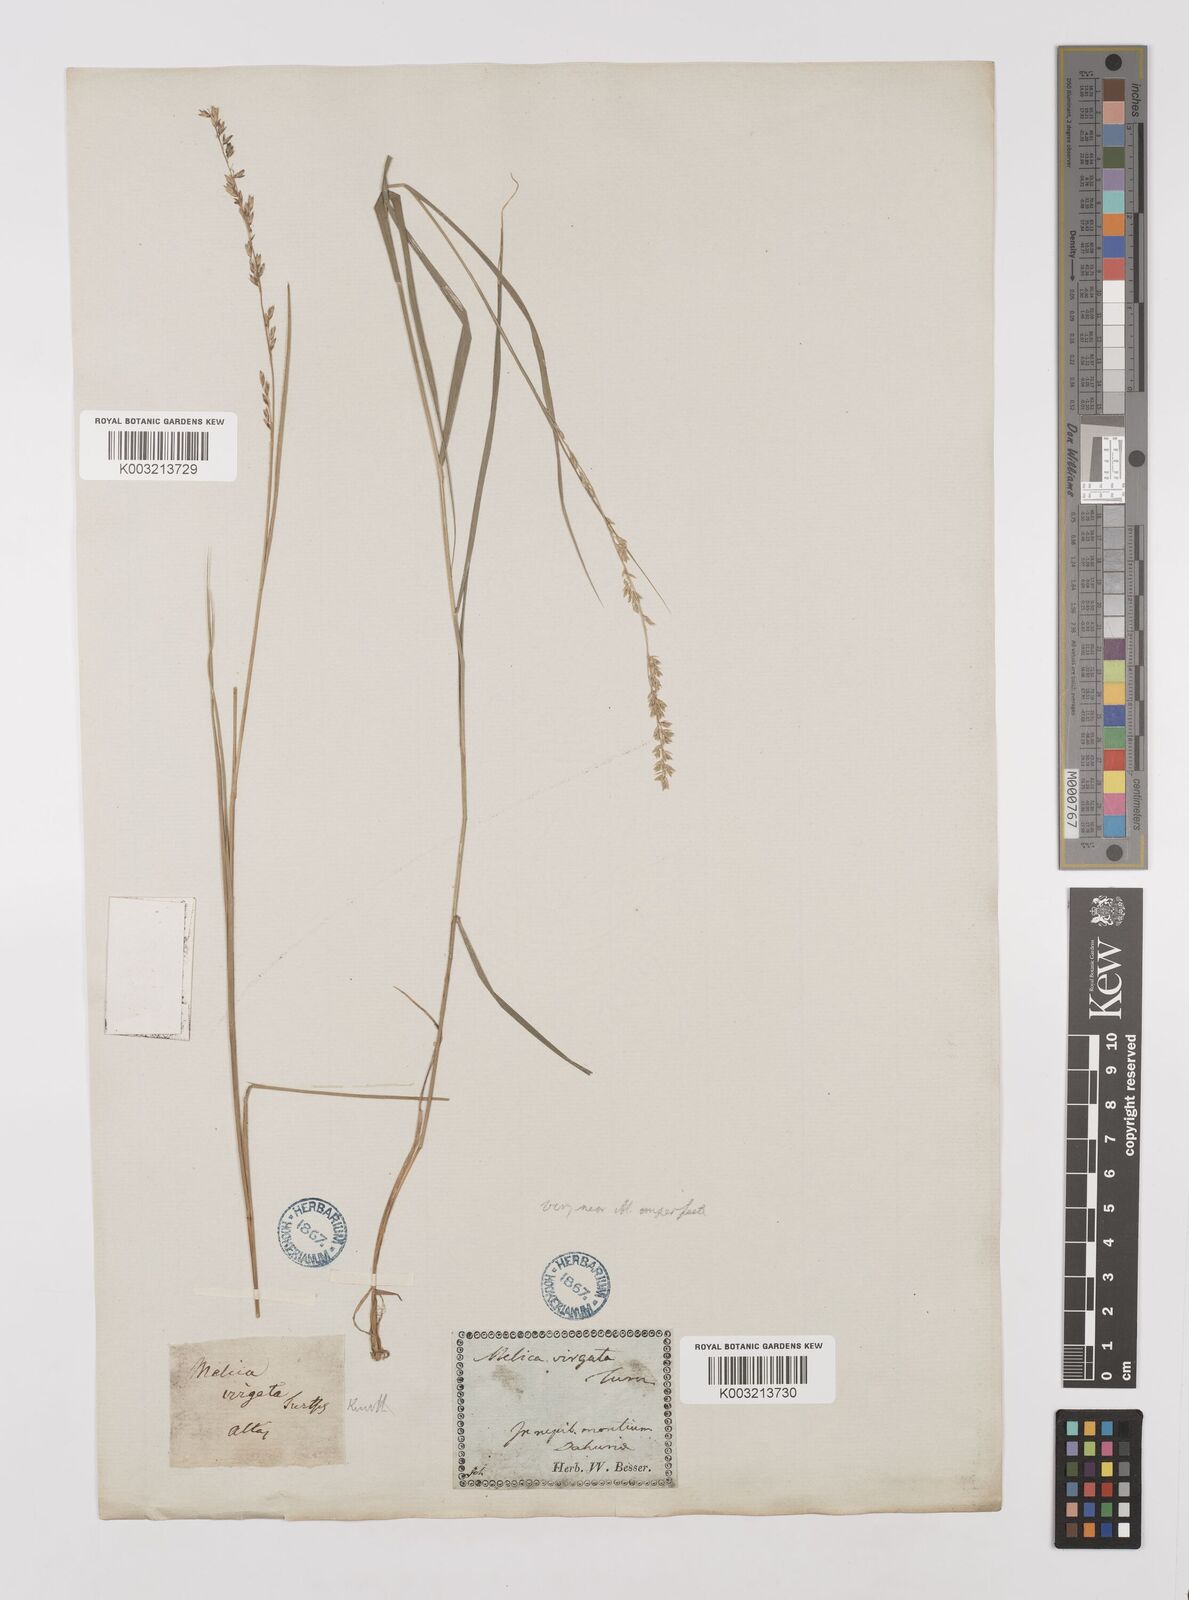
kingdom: Plantae
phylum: Tracheophyta
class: Liliopsida
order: Poales
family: Poaceae
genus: Melica
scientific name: Melica virgata
